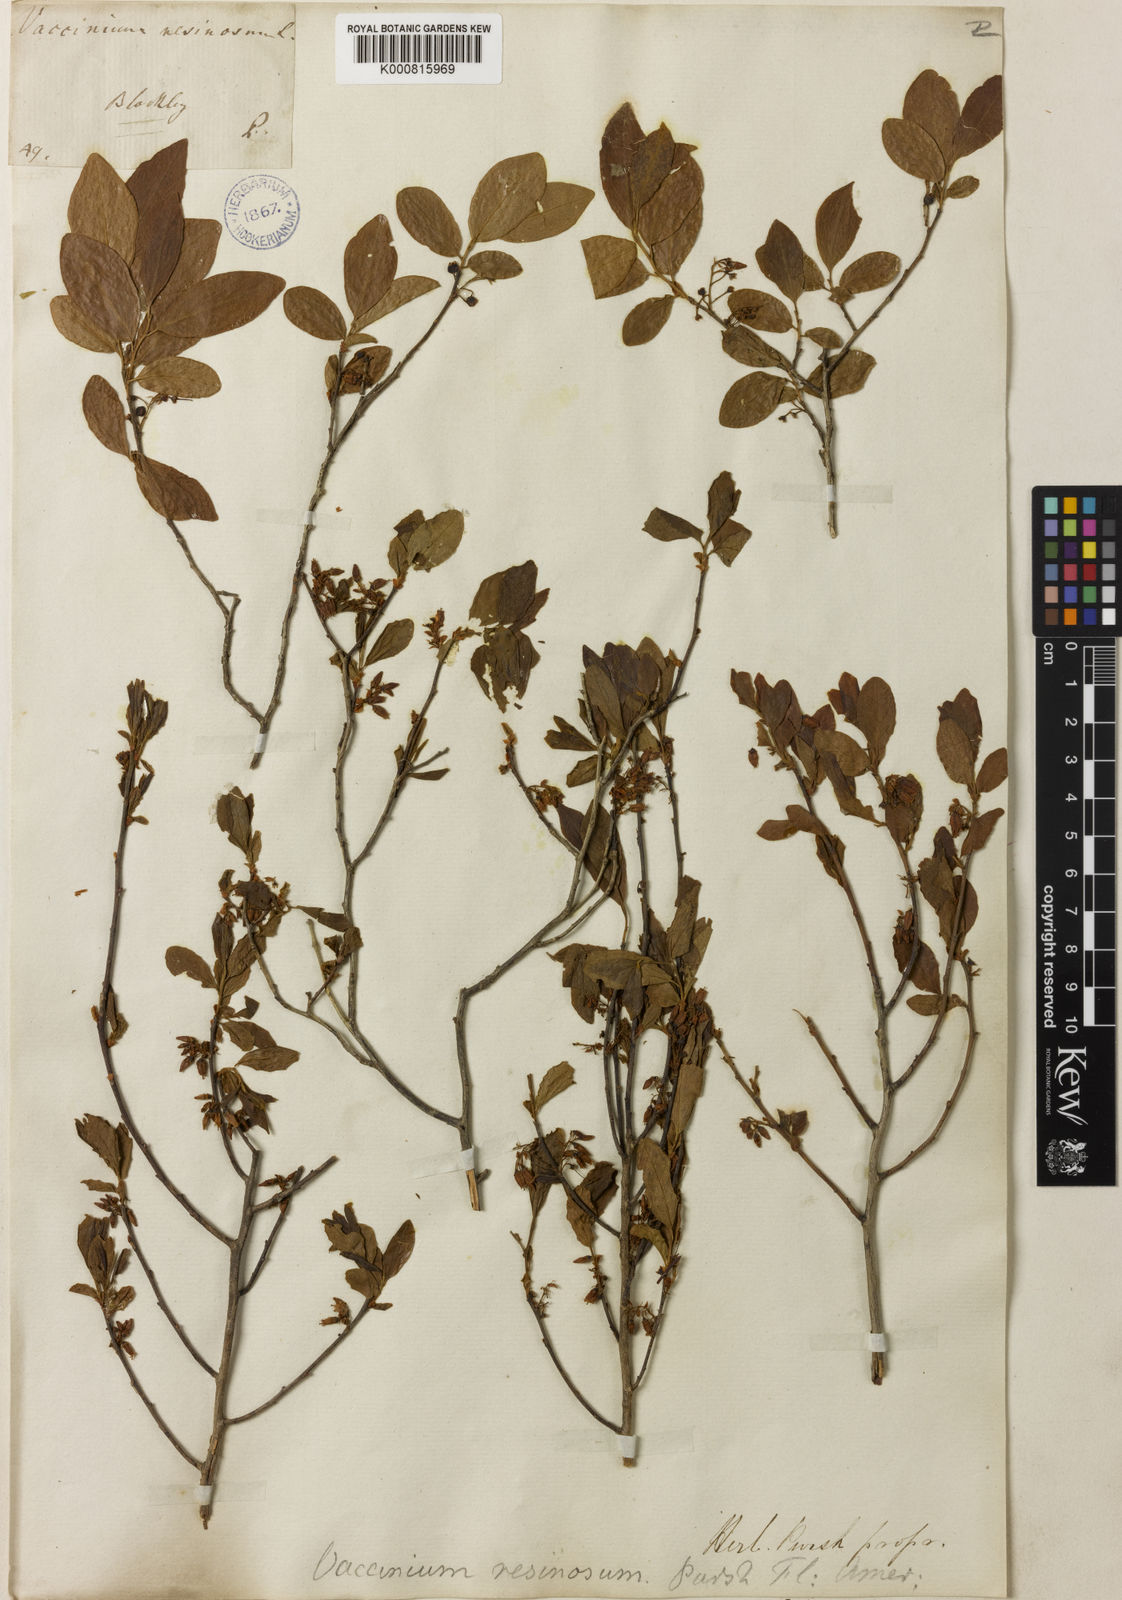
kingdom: Plantae
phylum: Tracheophyta
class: Magnoliopsida
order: Ericales
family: Ericaceae
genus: Gaylussacia
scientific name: Gaylussacia baccata
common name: Black huckleberry
